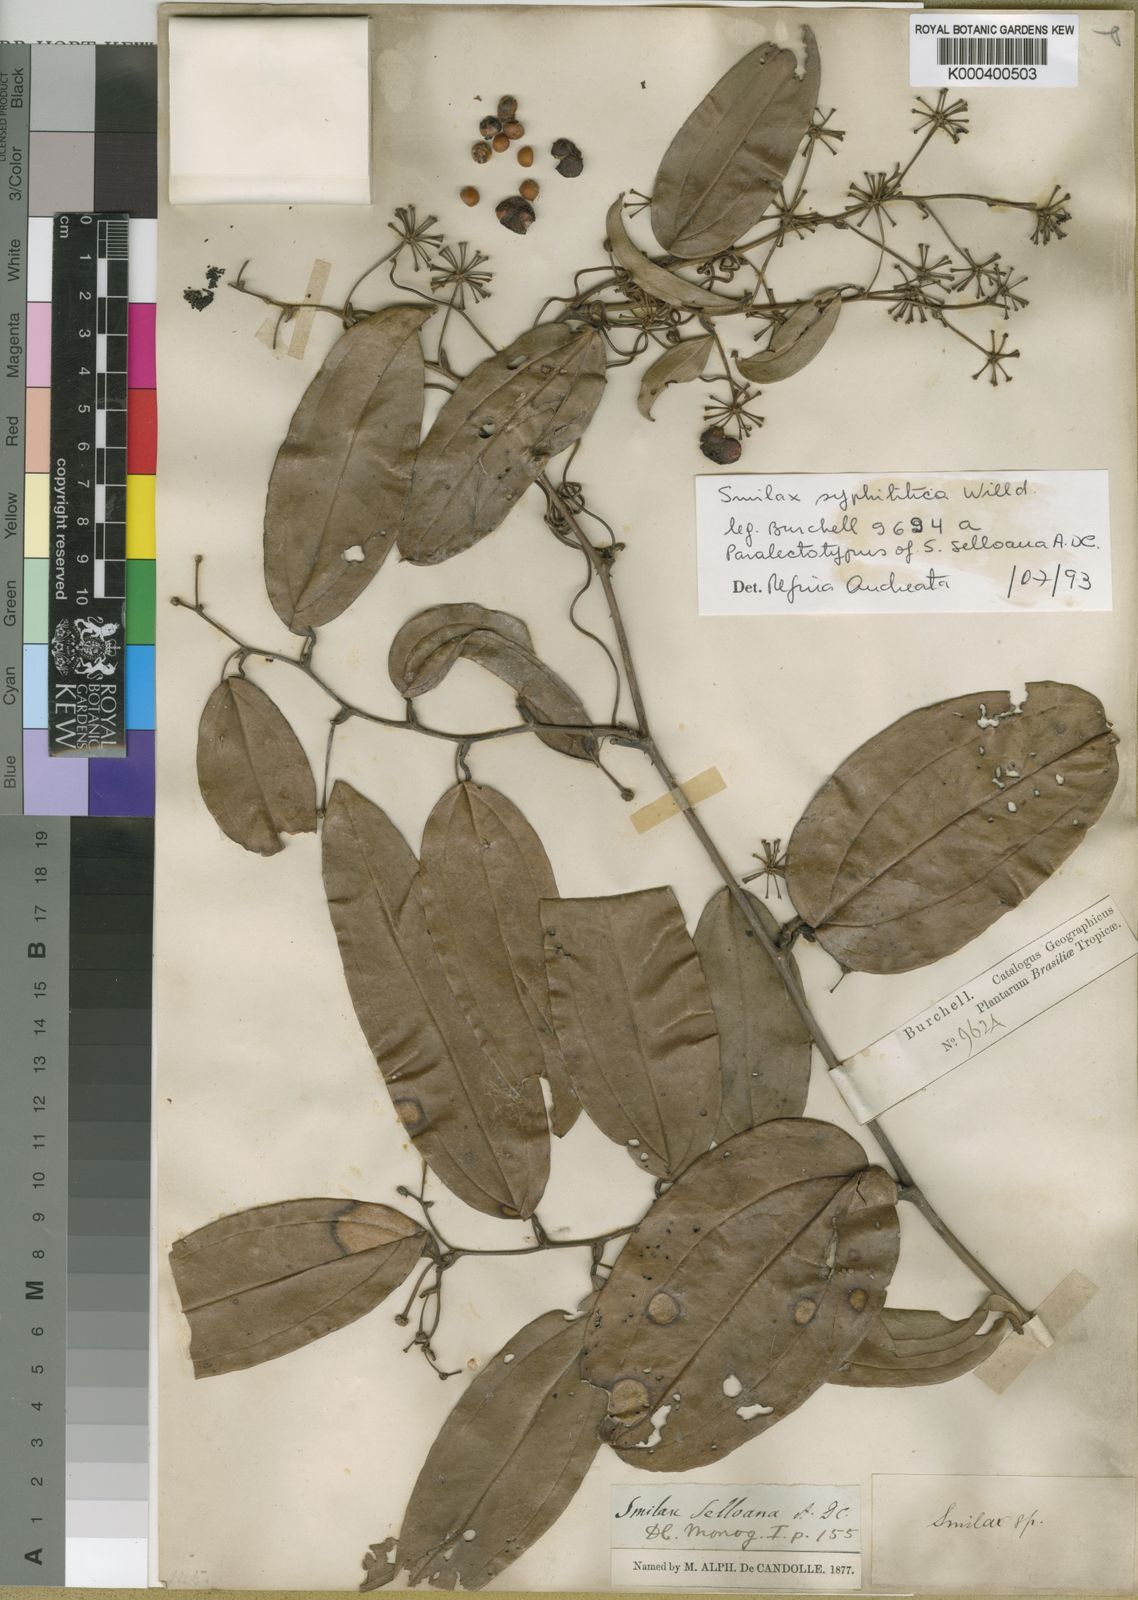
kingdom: Plantae
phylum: Tracheophyta
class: Liliopsida
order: Liliales
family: Smilacaceae
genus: Smilax
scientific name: Smilax siphilitica
